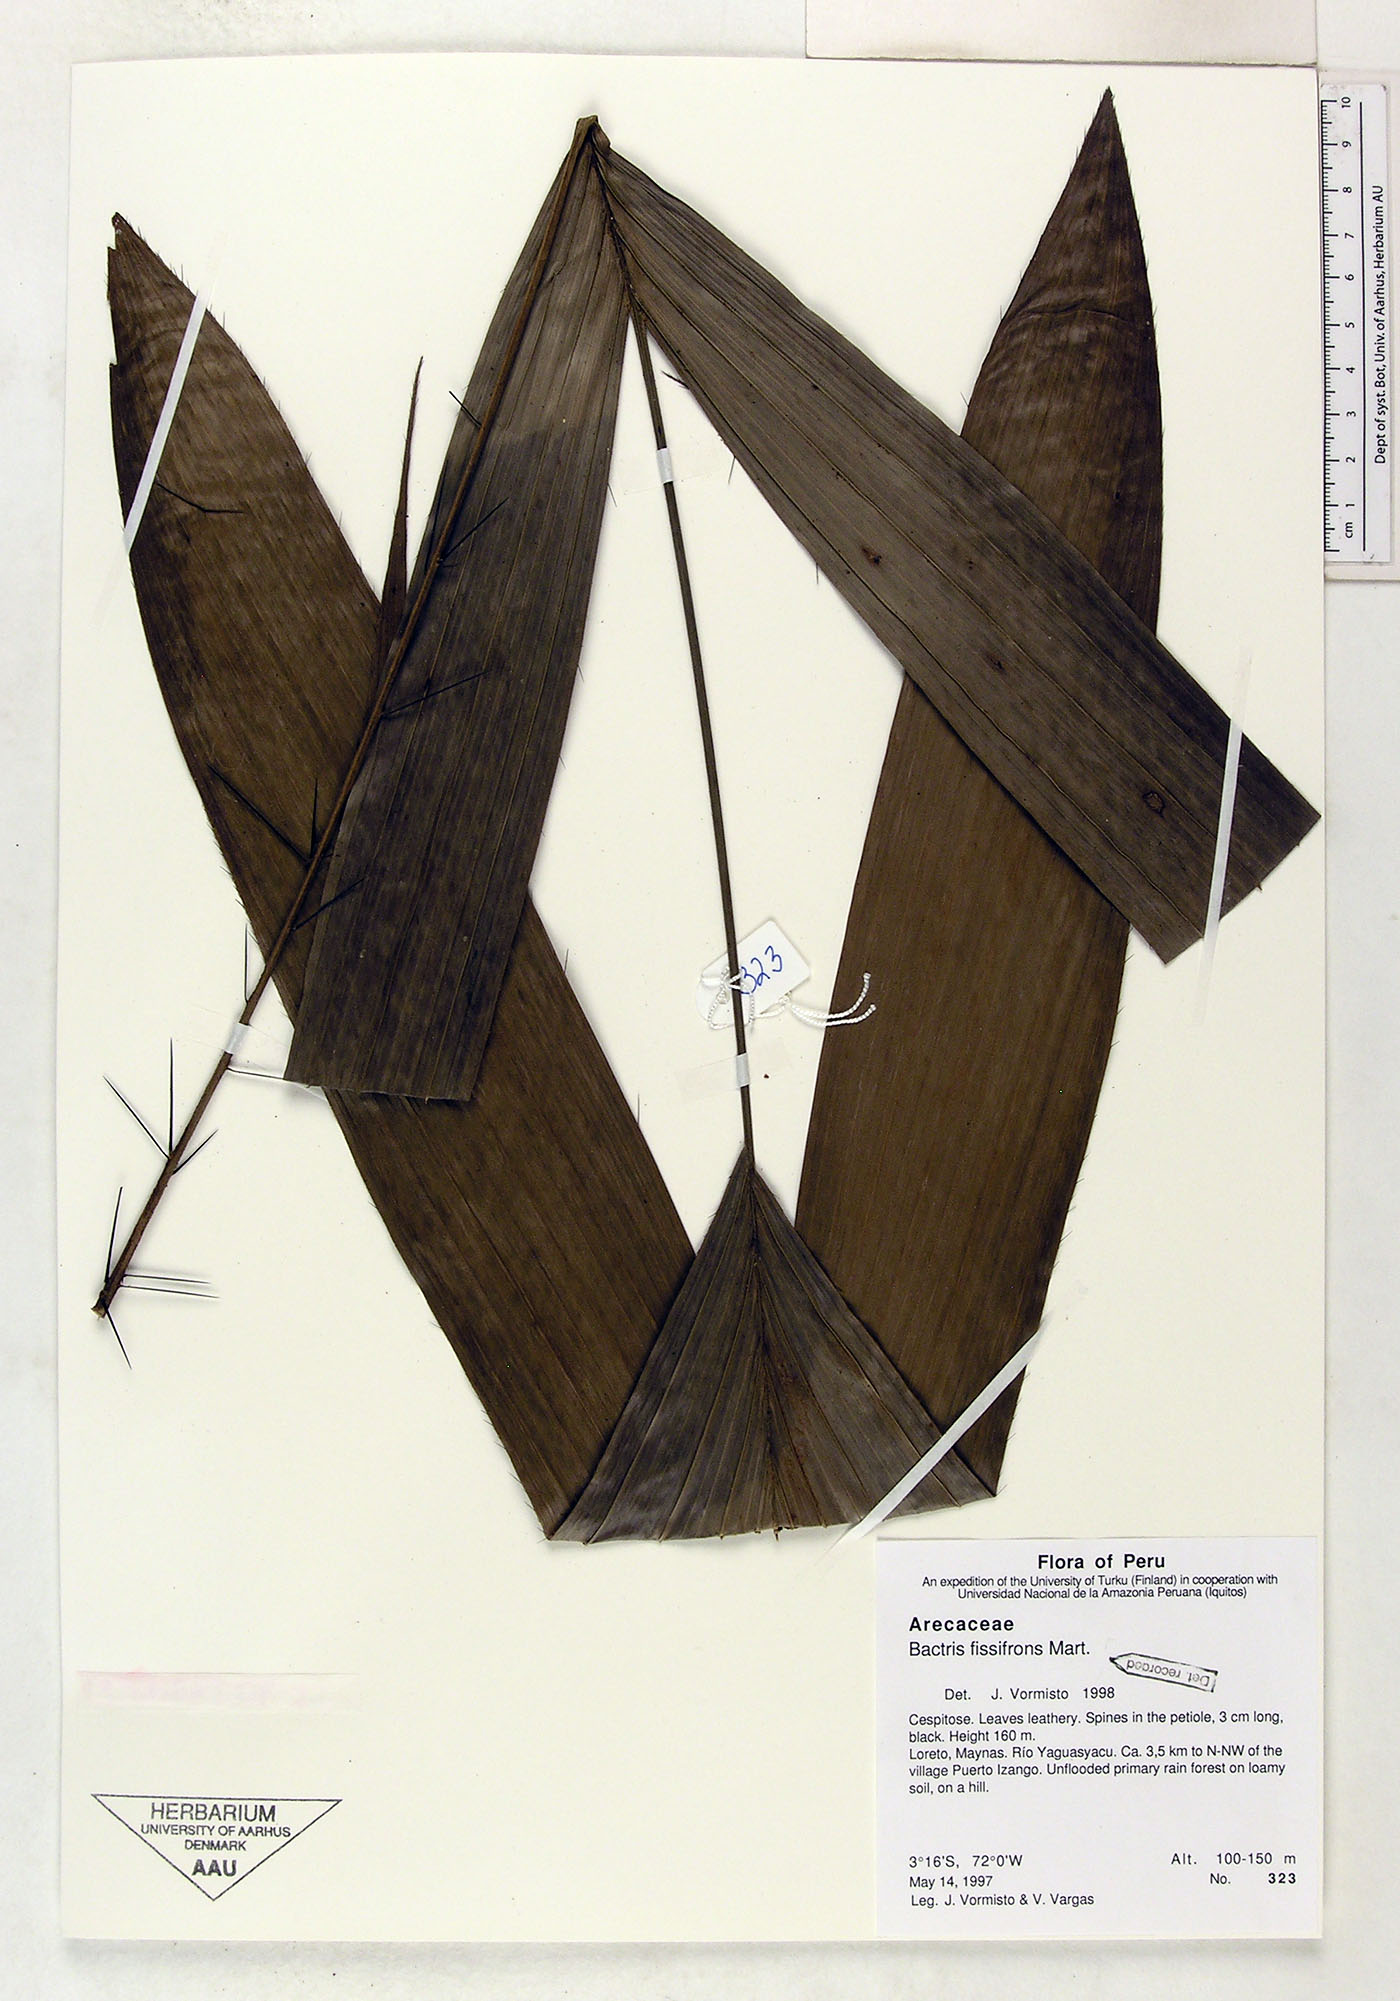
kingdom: Plantae
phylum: Tracheophyta
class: Liliopsida
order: Arecales
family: Arecaceae
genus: Bactris
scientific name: Bactris fissifrons
